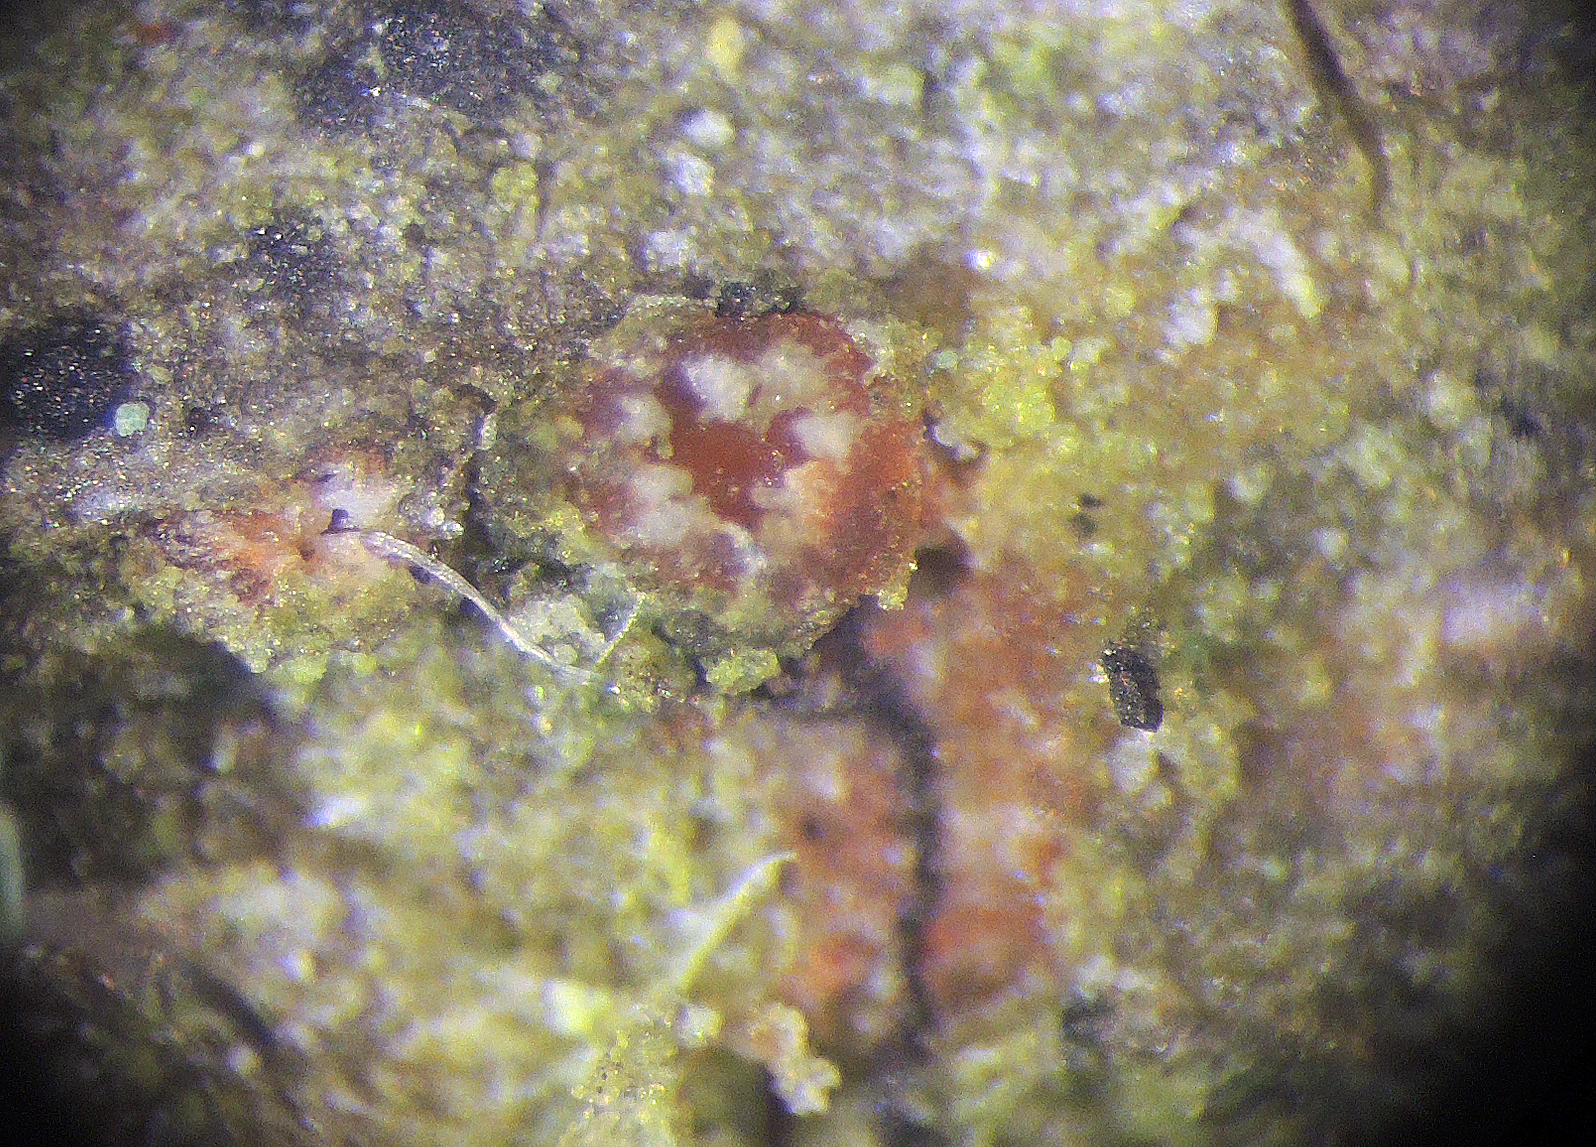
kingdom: Fungi
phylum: Ascomycota
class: Orbiliomycetes
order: Orbiliales
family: Orbiliaceae
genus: Orbilia
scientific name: Orbilia carpoboloides
